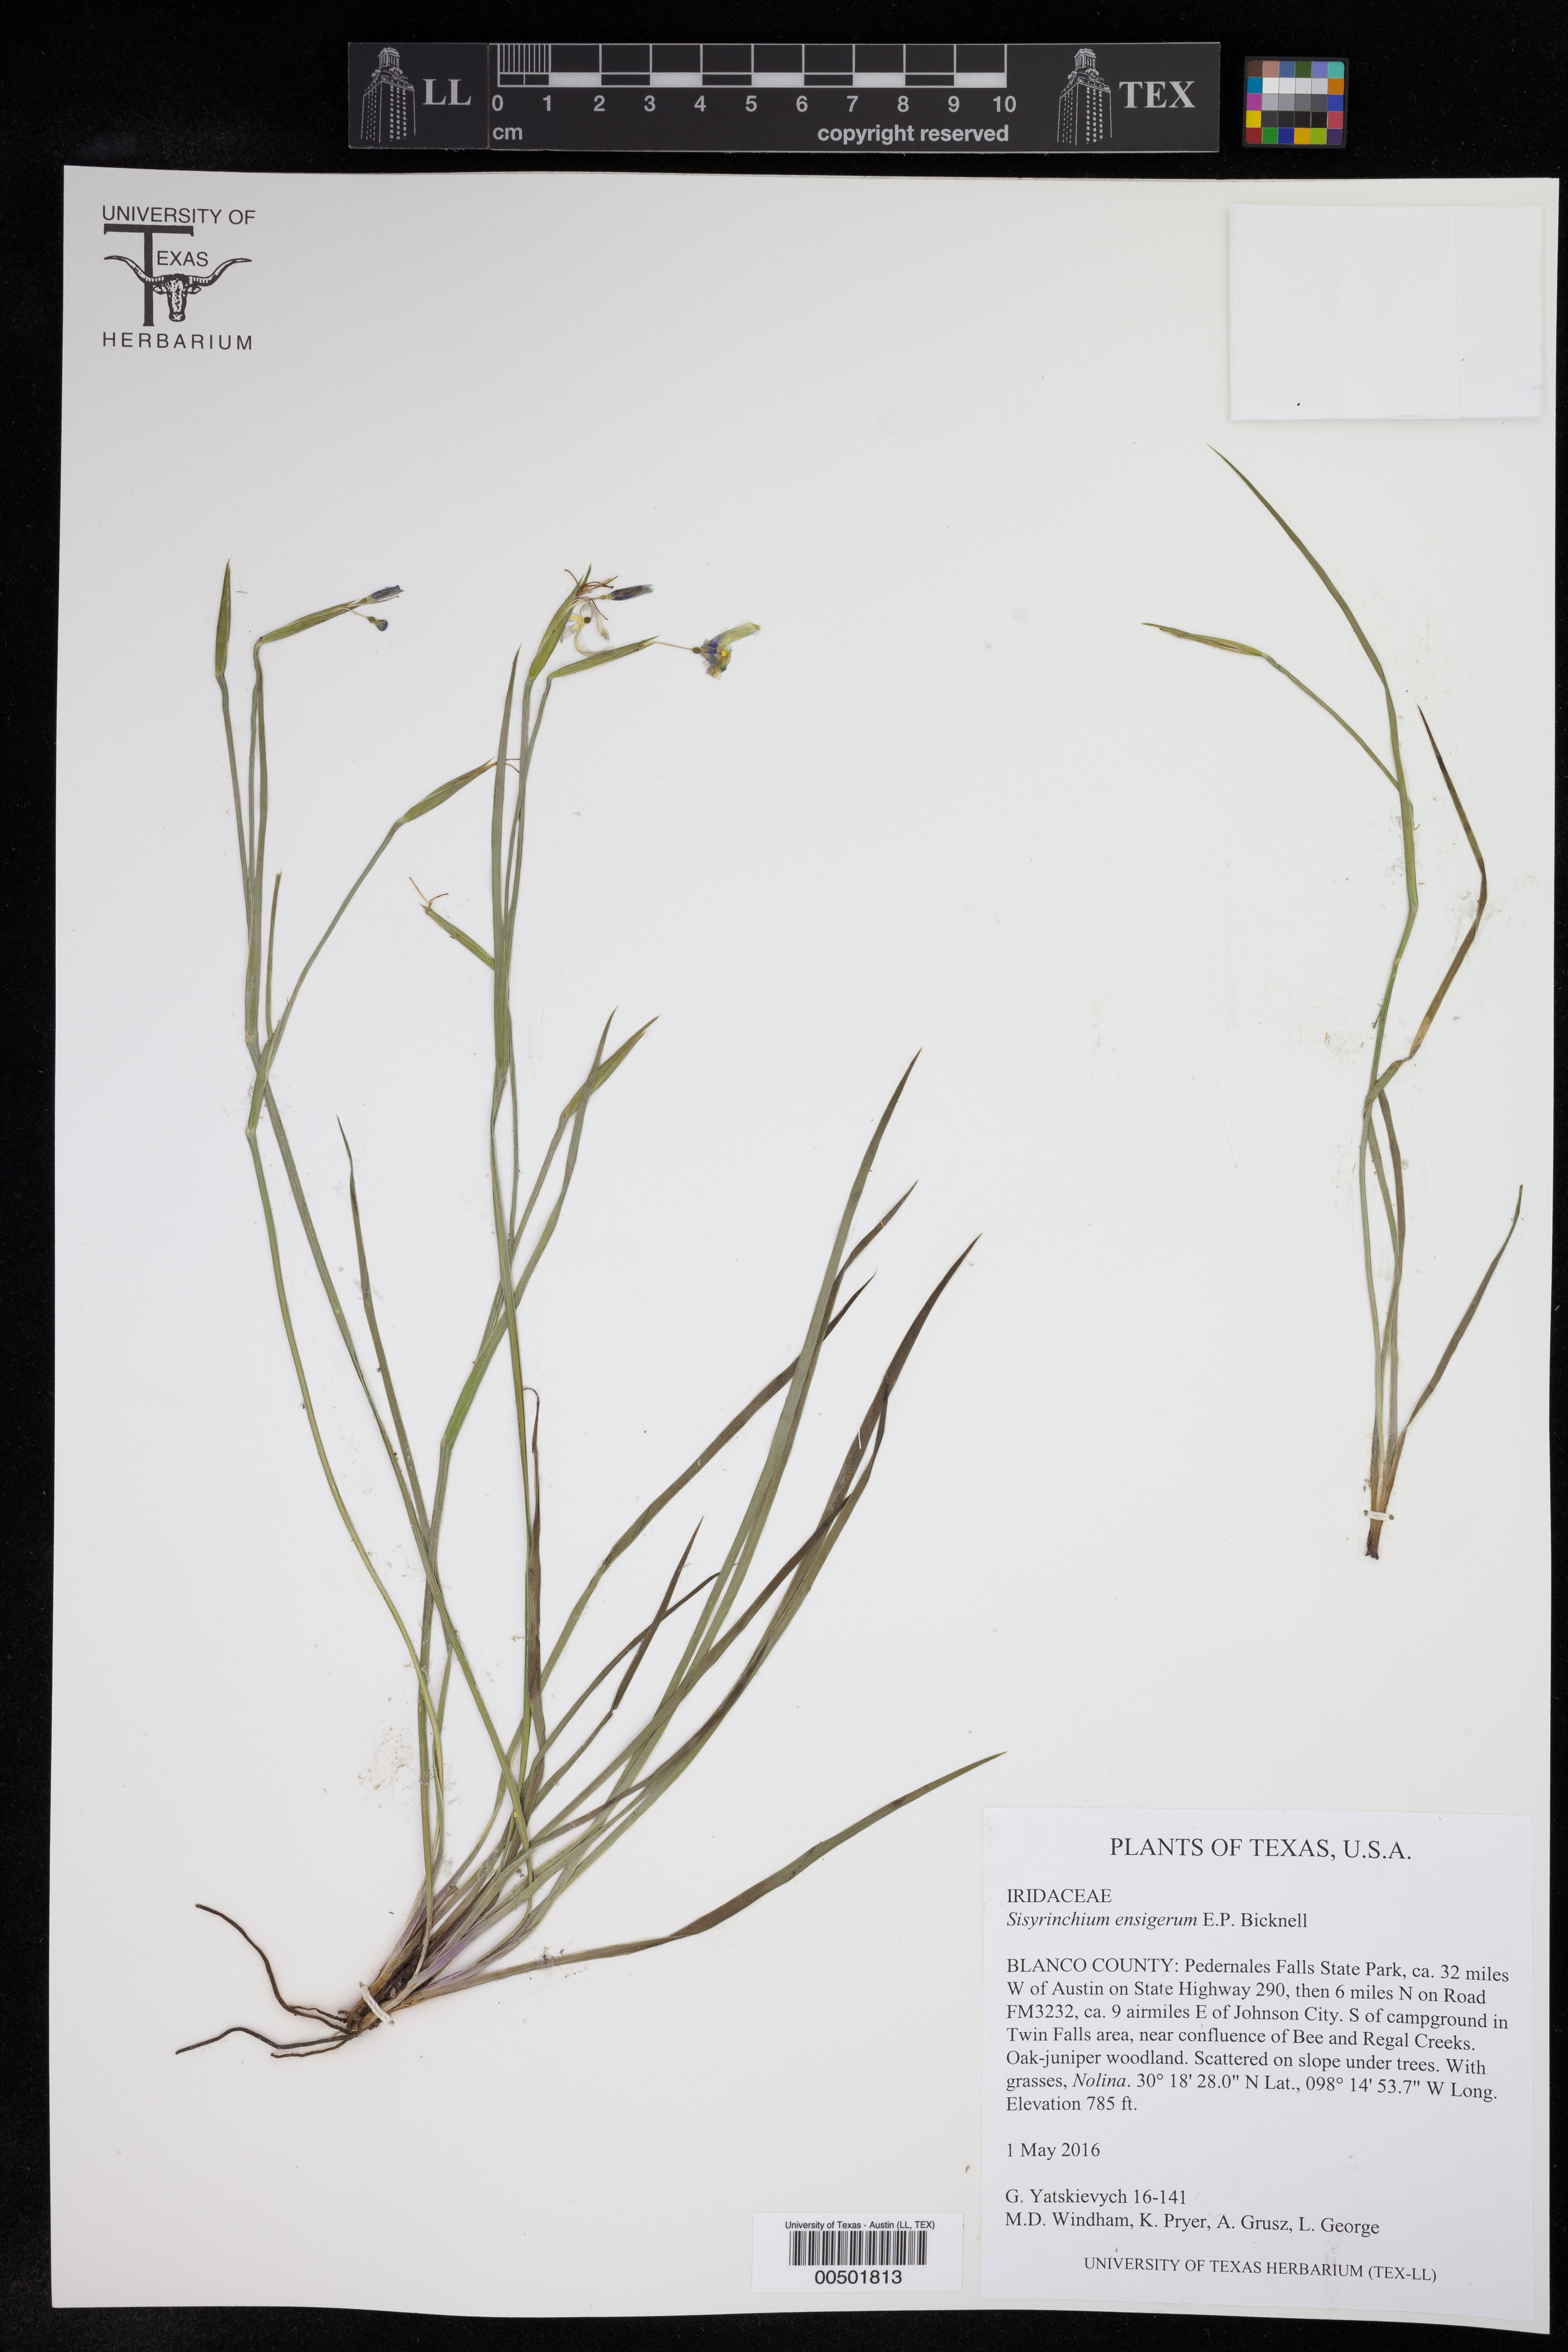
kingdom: Plantae
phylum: Tracheophyta
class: Liliopsida
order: Asparagales
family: Iridaceae
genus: Sisyrinchium
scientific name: Sisyrinchium ensigerum
